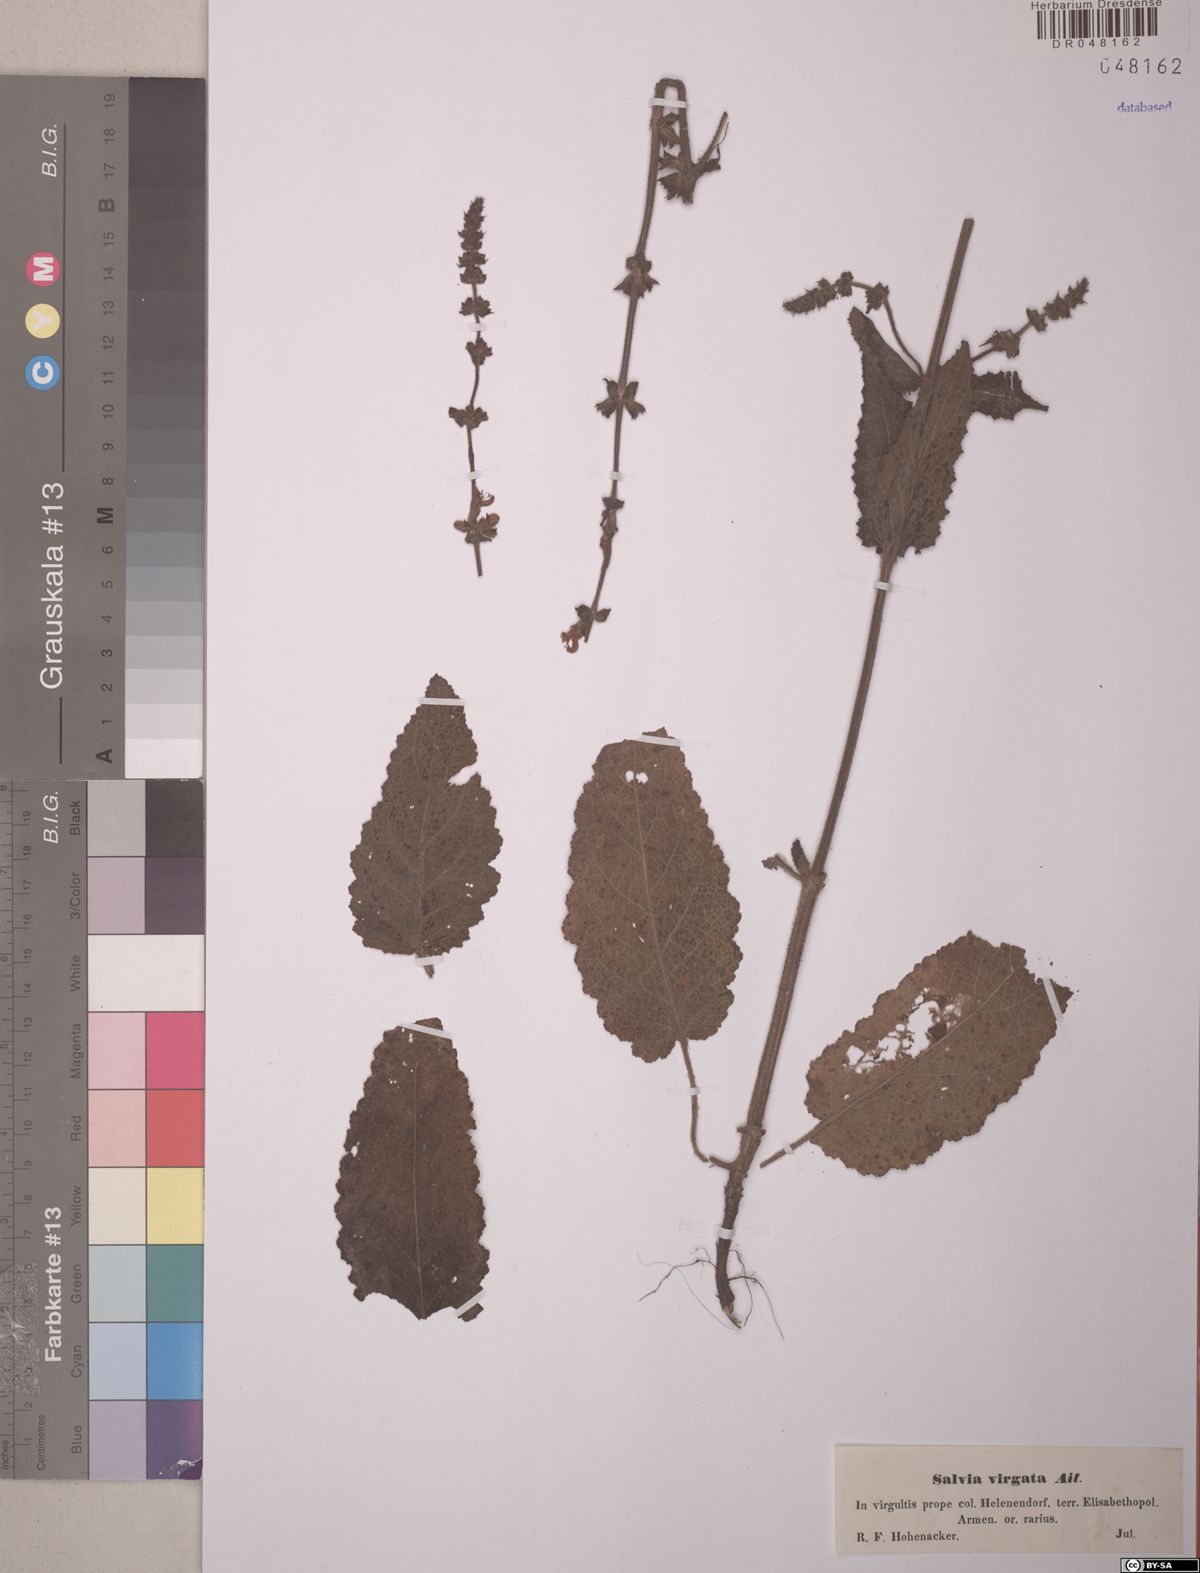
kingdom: Plantae
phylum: Tracheophyta
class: Magnoliopsida
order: Lamiales
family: Lamiaceae
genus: Salvia
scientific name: Salvia virgata
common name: Wand sage
